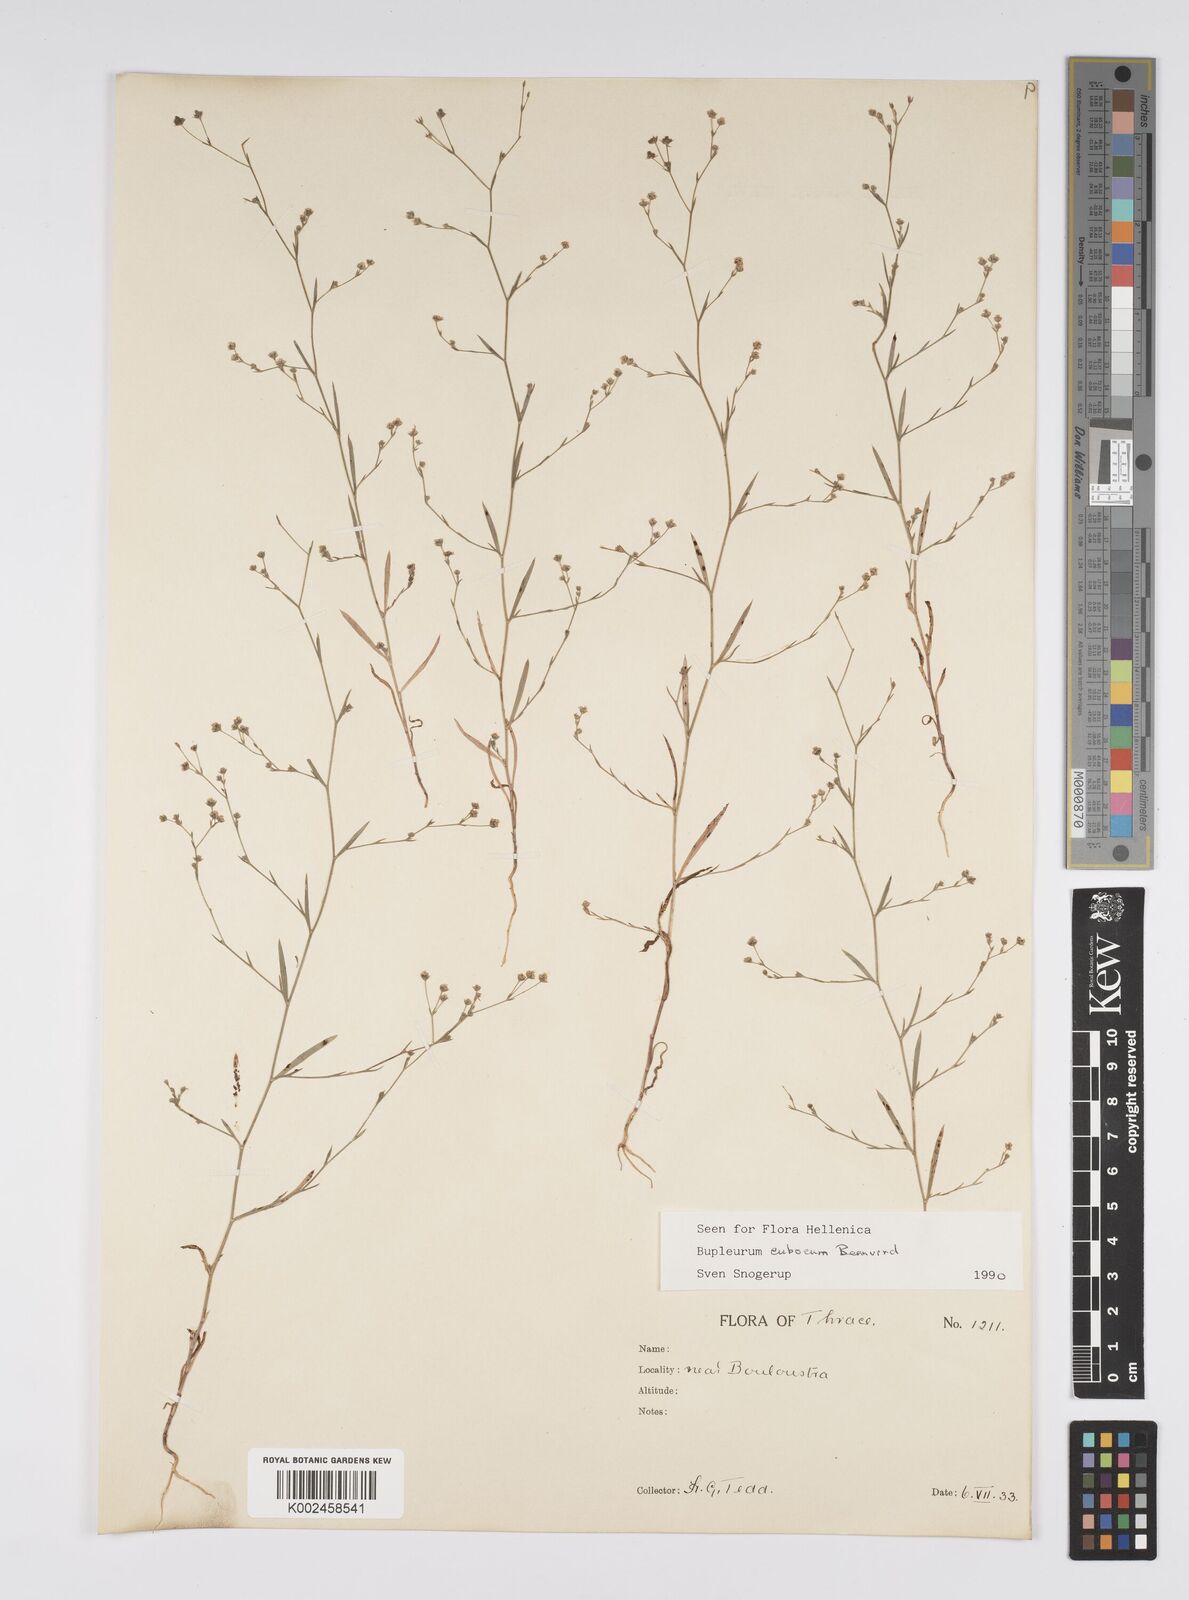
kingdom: Plantae
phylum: Tracheophyta
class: Magnoliopsida
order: Apiales
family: Apiaceae
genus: Bupleurum
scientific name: Bupleurum tenuissimum
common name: Slender hare's-ear
